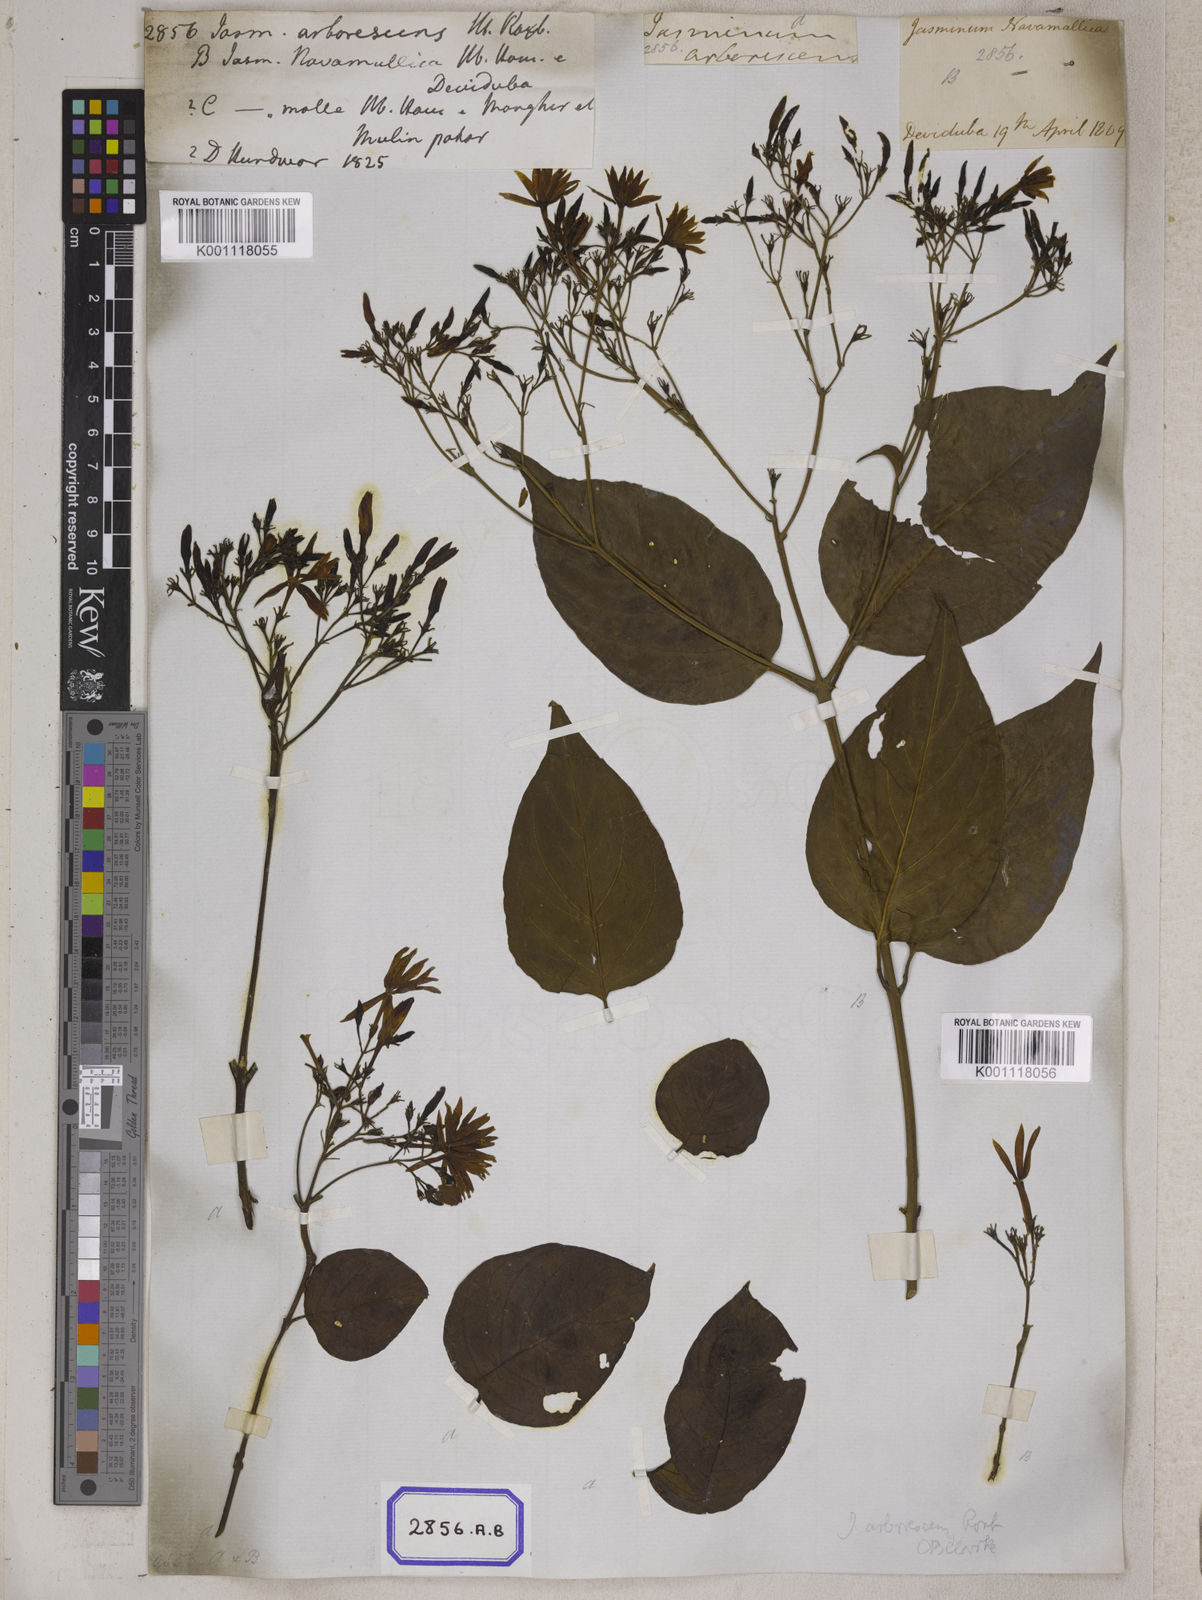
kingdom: Plantae
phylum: Tracheophyta
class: Magnoliopsida
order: Lamiales
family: Oleaceae
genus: Jasminum
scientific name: Jasminum arborescens
